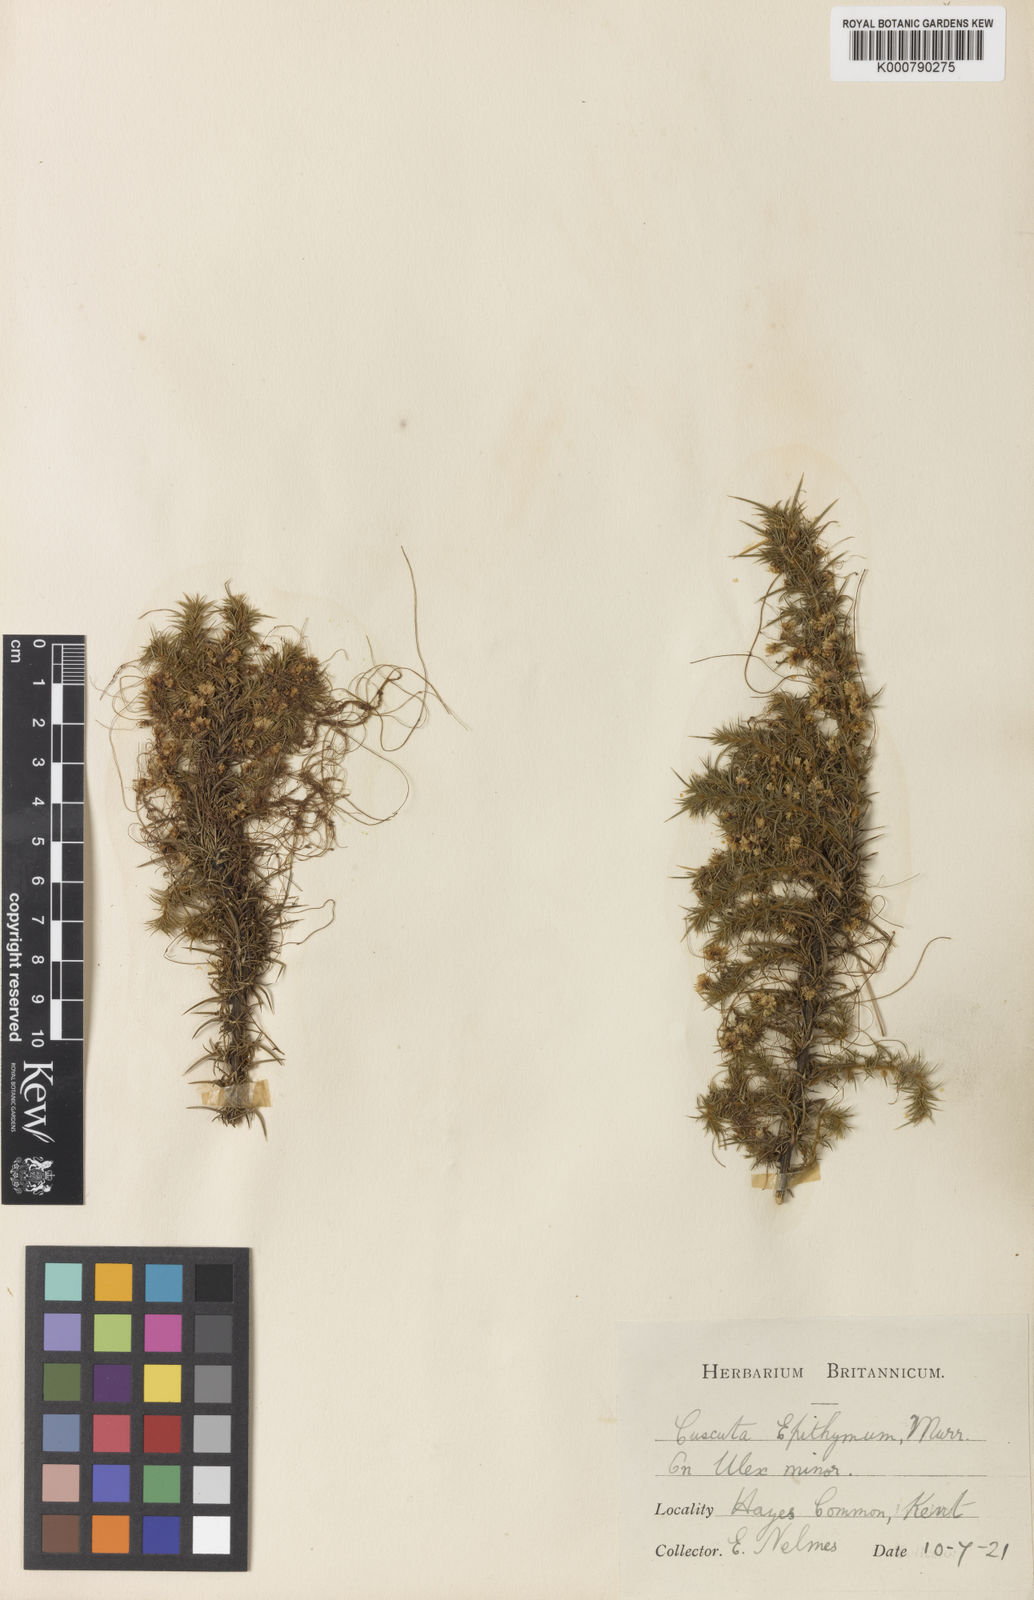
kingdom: Plantae
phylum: Tracheophyta
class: Magnoliopsida
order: Solanales
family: Convolvulaceae
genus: Cuscuta
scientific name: Cuscuta epithymum
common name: Clover dodder
